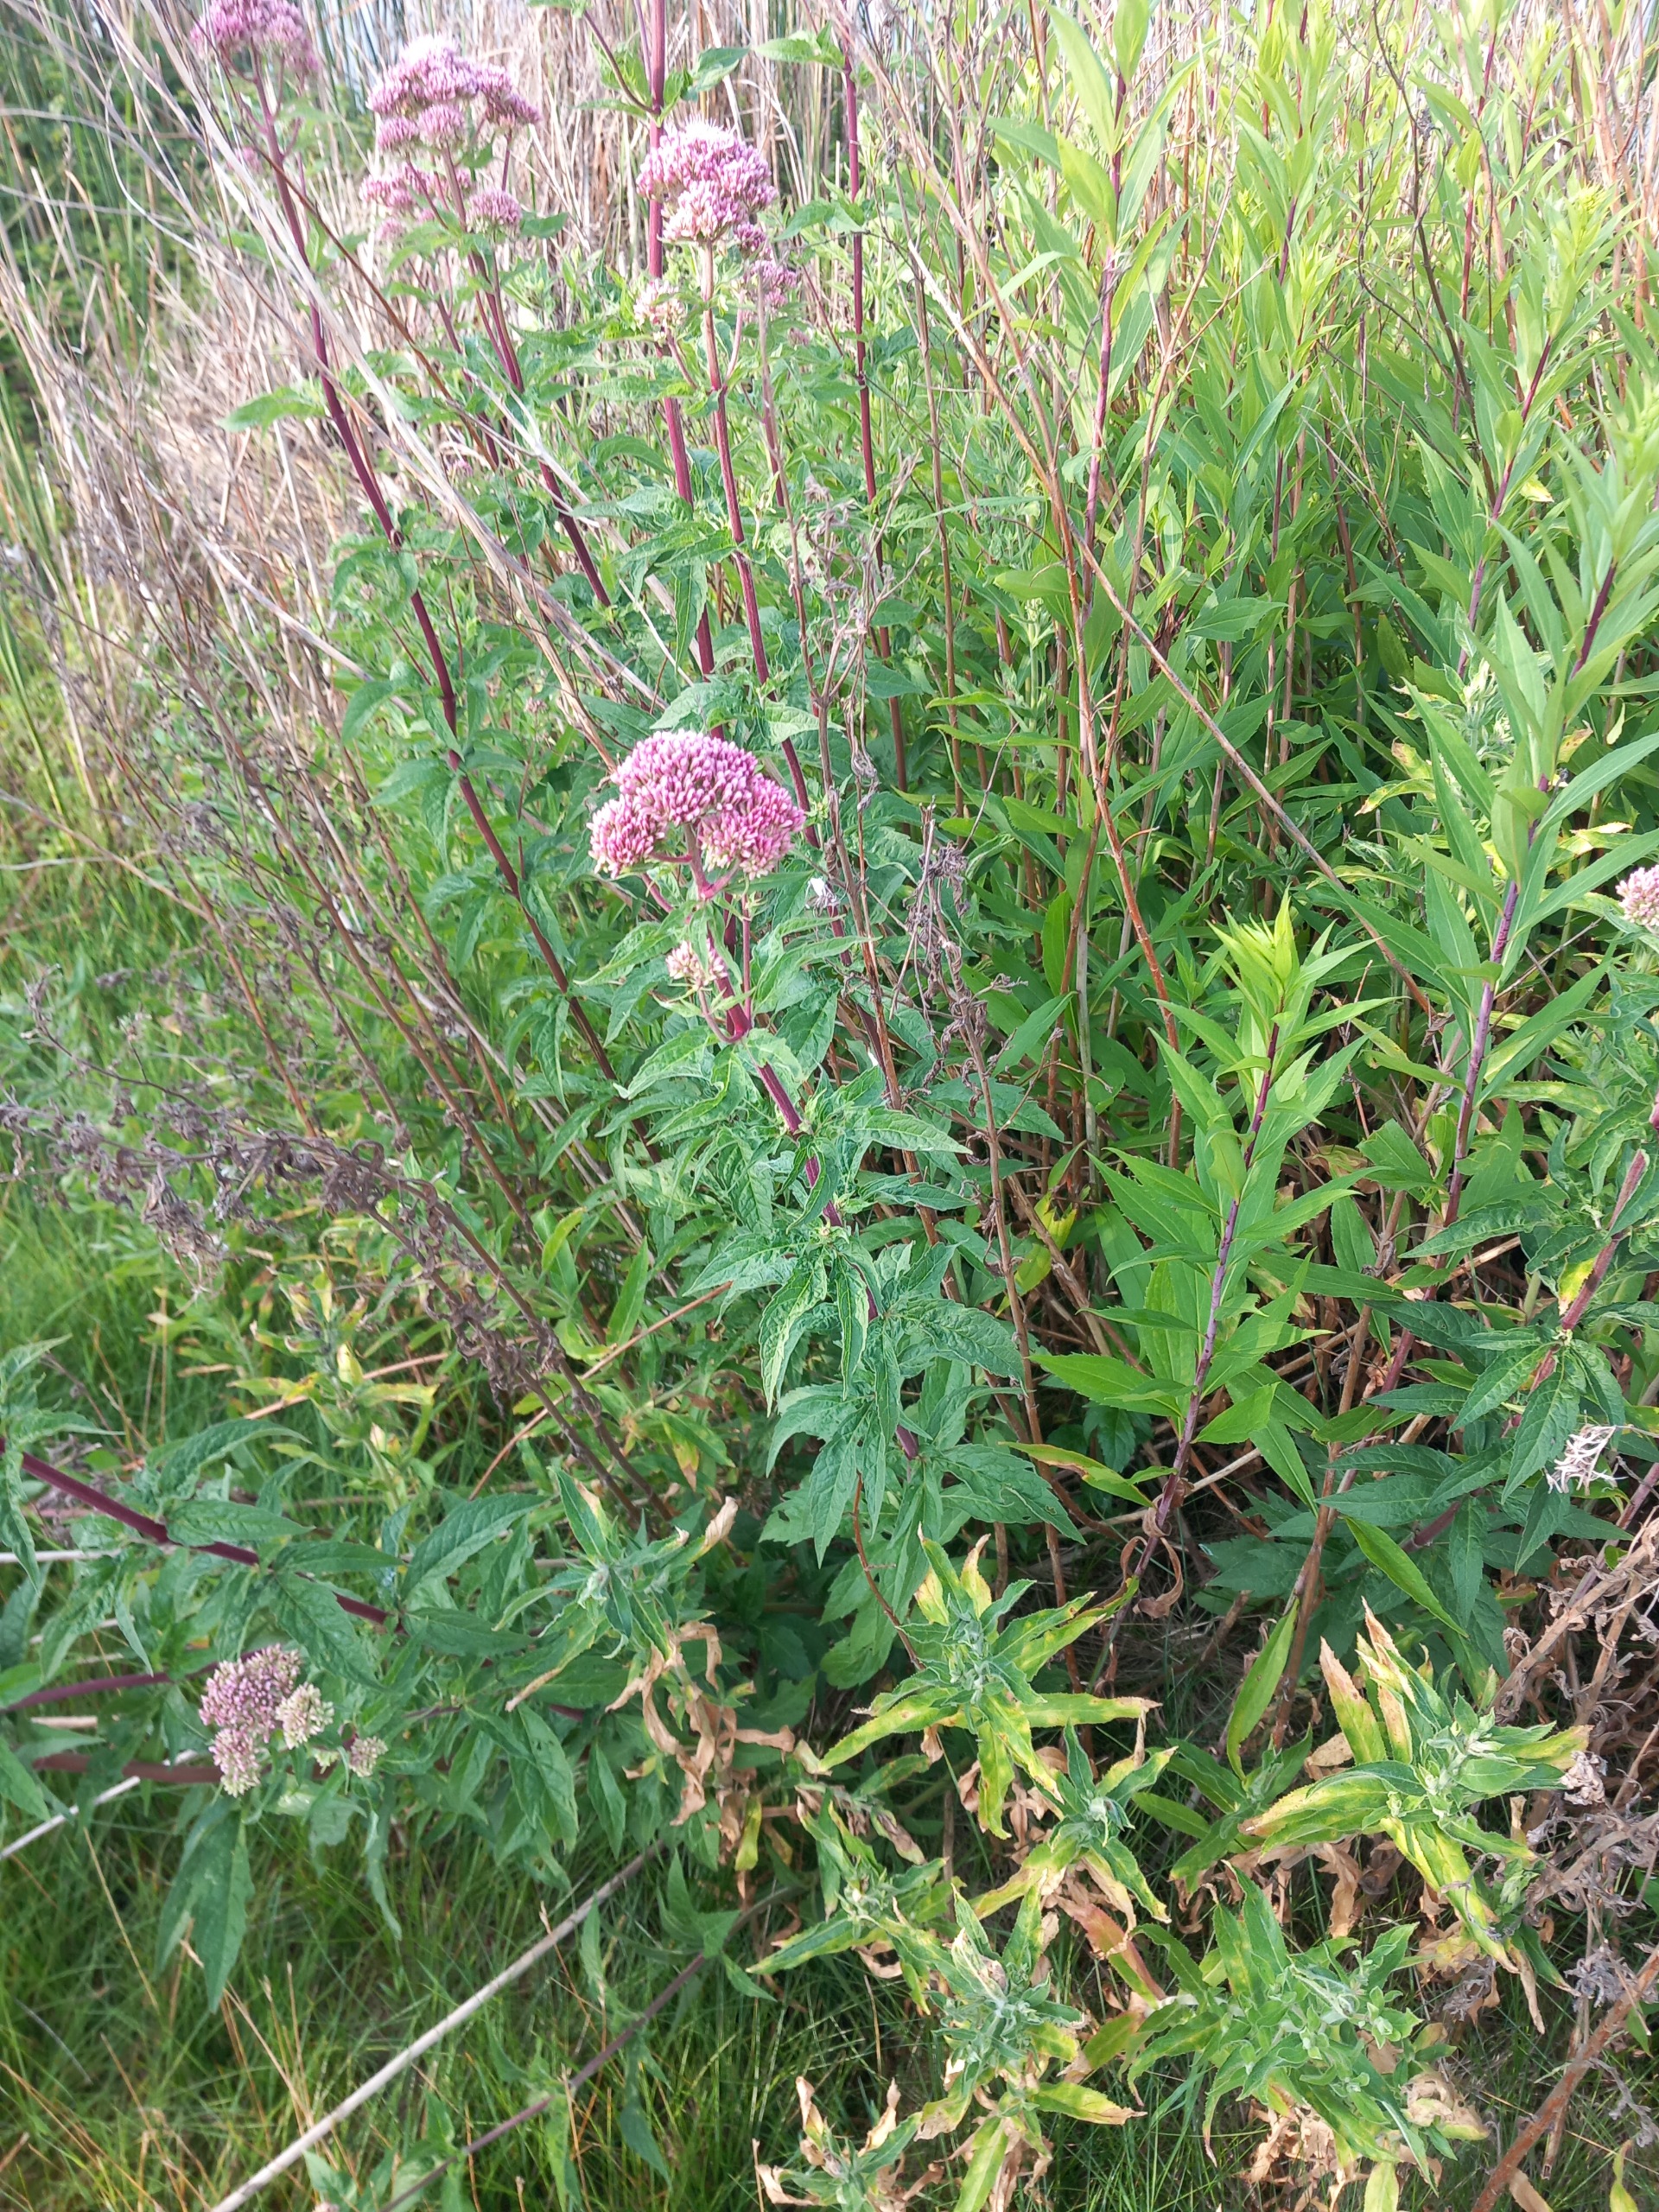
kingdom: Plantae
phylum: Tracheophyta
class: Magnoliopsida
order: Asterales
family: Asteraceae
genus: Eupatorium
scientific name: Eupatorium cannabinum
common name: Hjortetrøst
